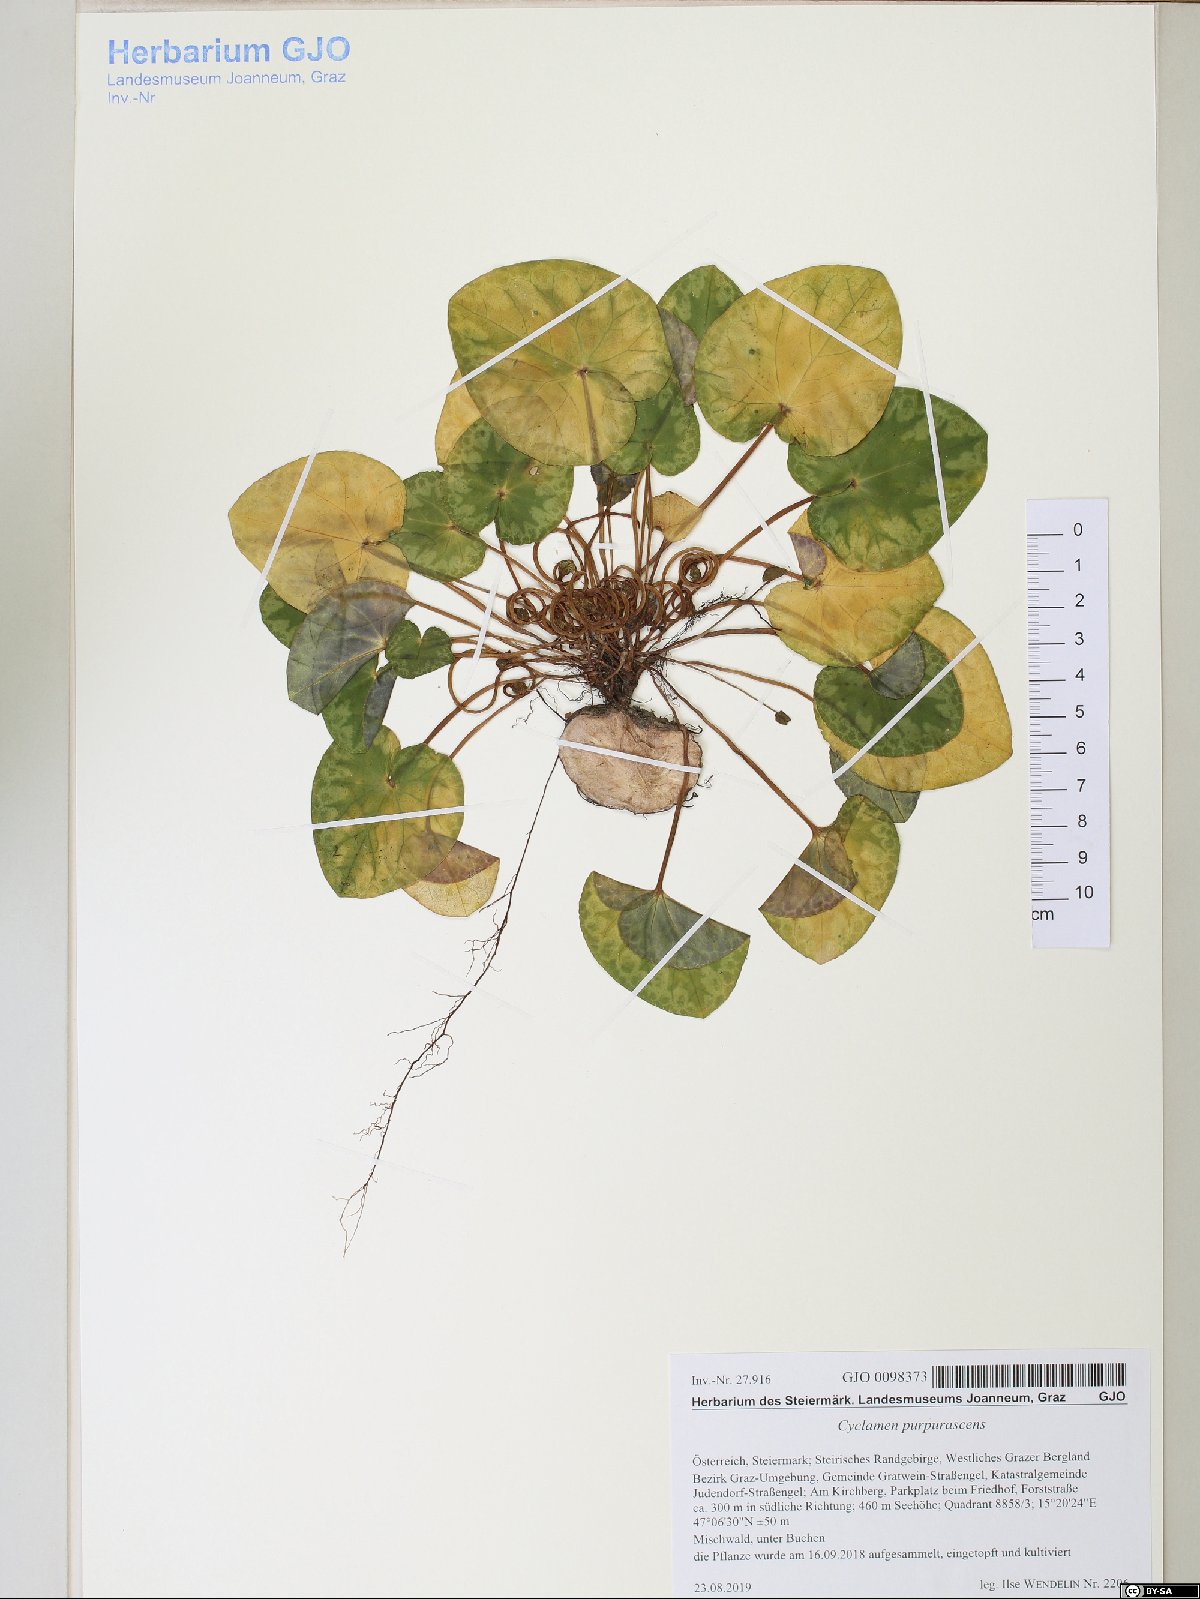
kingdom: Plantae
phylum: Tracheophyta
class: Magnoliopsida
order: Ericales
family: Primulaceae
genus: Cyclamen
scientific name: Cyclamen purpurascens
